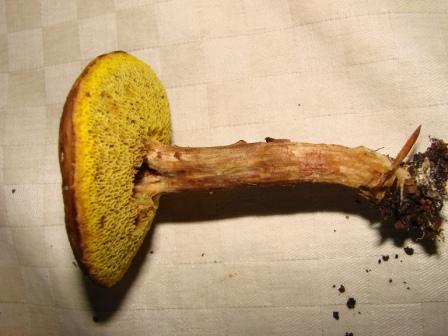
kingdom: Fungi
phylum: Basidiomycota
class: Agaricomycetes
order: Boletales
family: Boletaceae
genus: Xerocomus
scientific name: Xerocomus subtomentosus
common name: filtet rørhat
